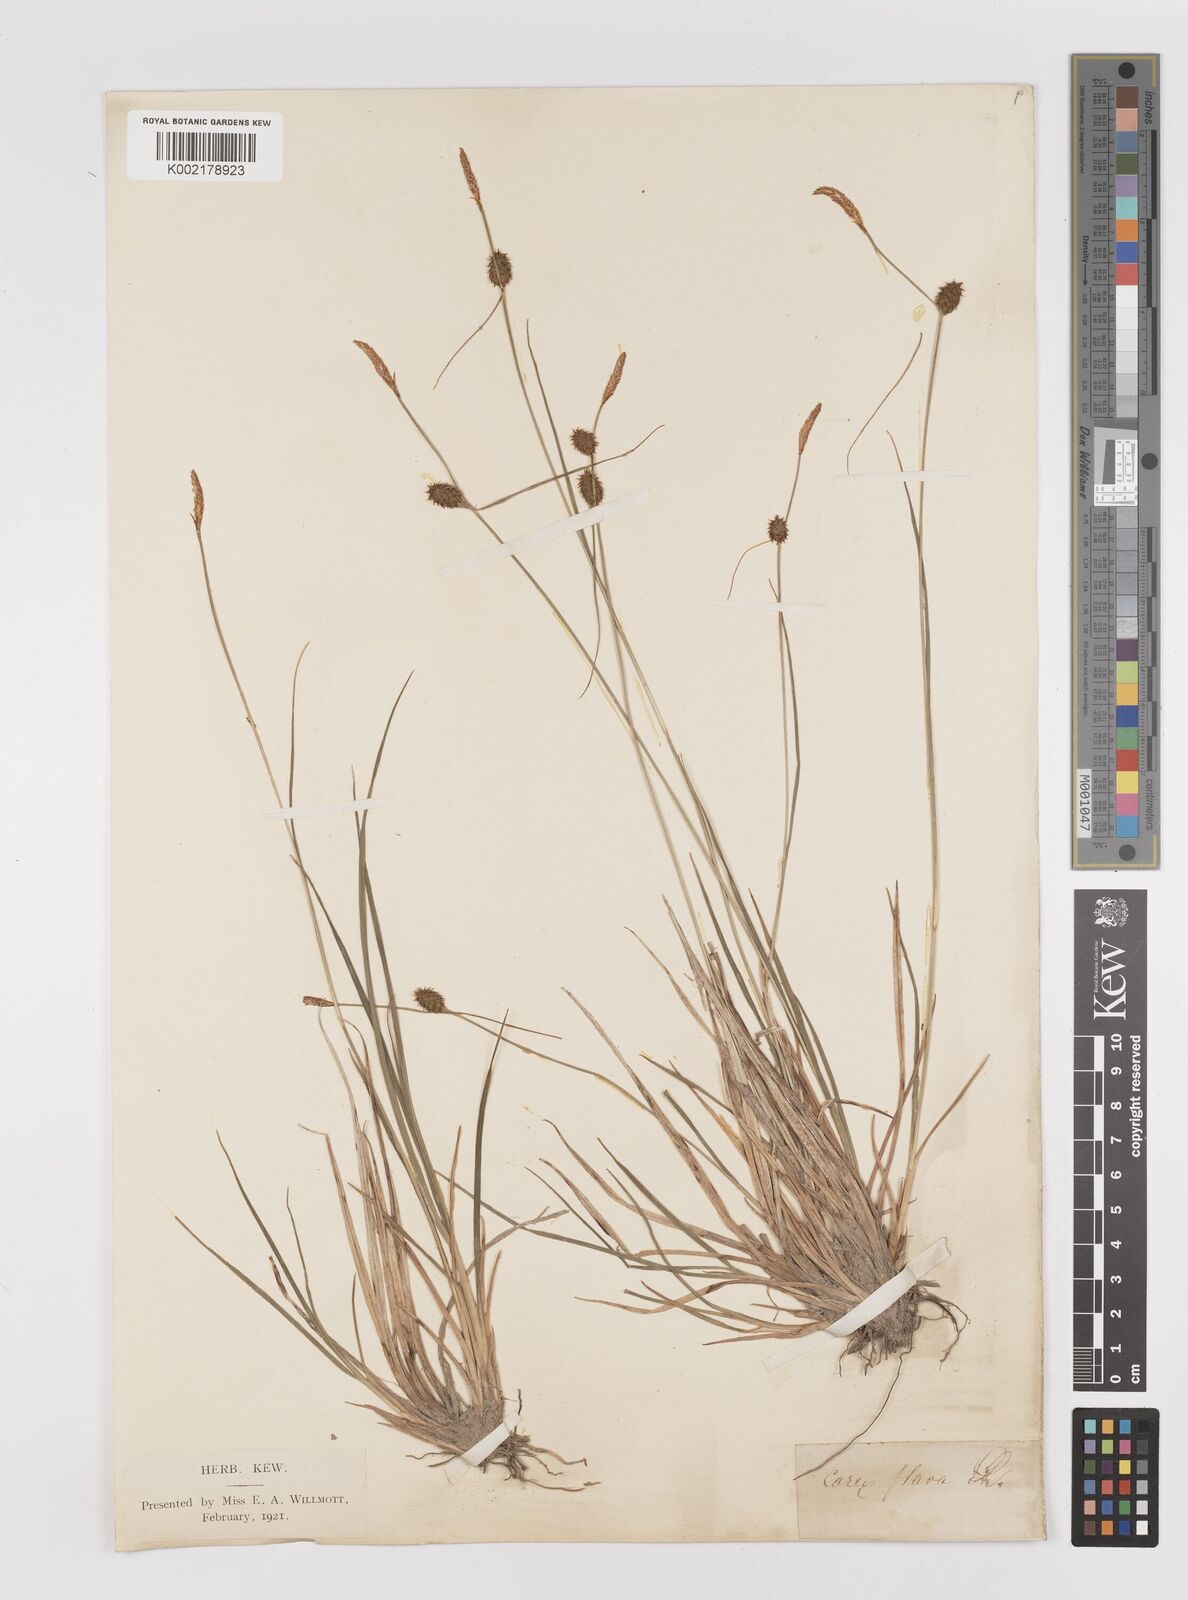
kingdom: Plantae
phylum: Tracheophyta
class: Liliopsida
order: Poales
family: Cyperaceae
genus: Carex
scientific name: Carex lepidocarpa
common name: Long-stalked yellow-sedge
